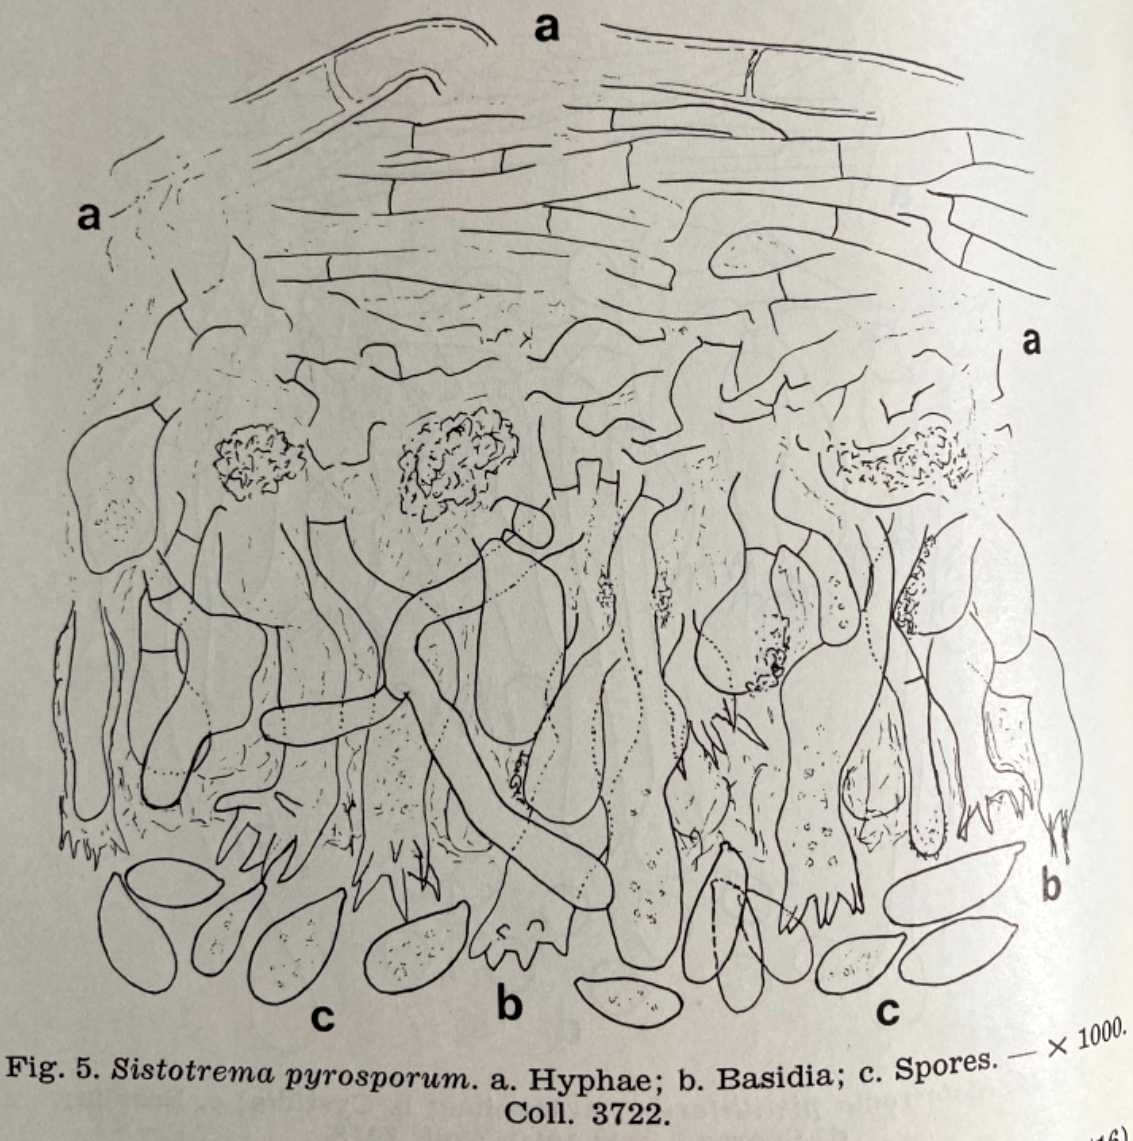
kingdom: Fungi
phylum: Basidiomycota
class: Agaricomycetes
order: Cantharellales
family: Hydnaceae
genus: Sistotrema
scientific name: Sistotrema pyrosporum
